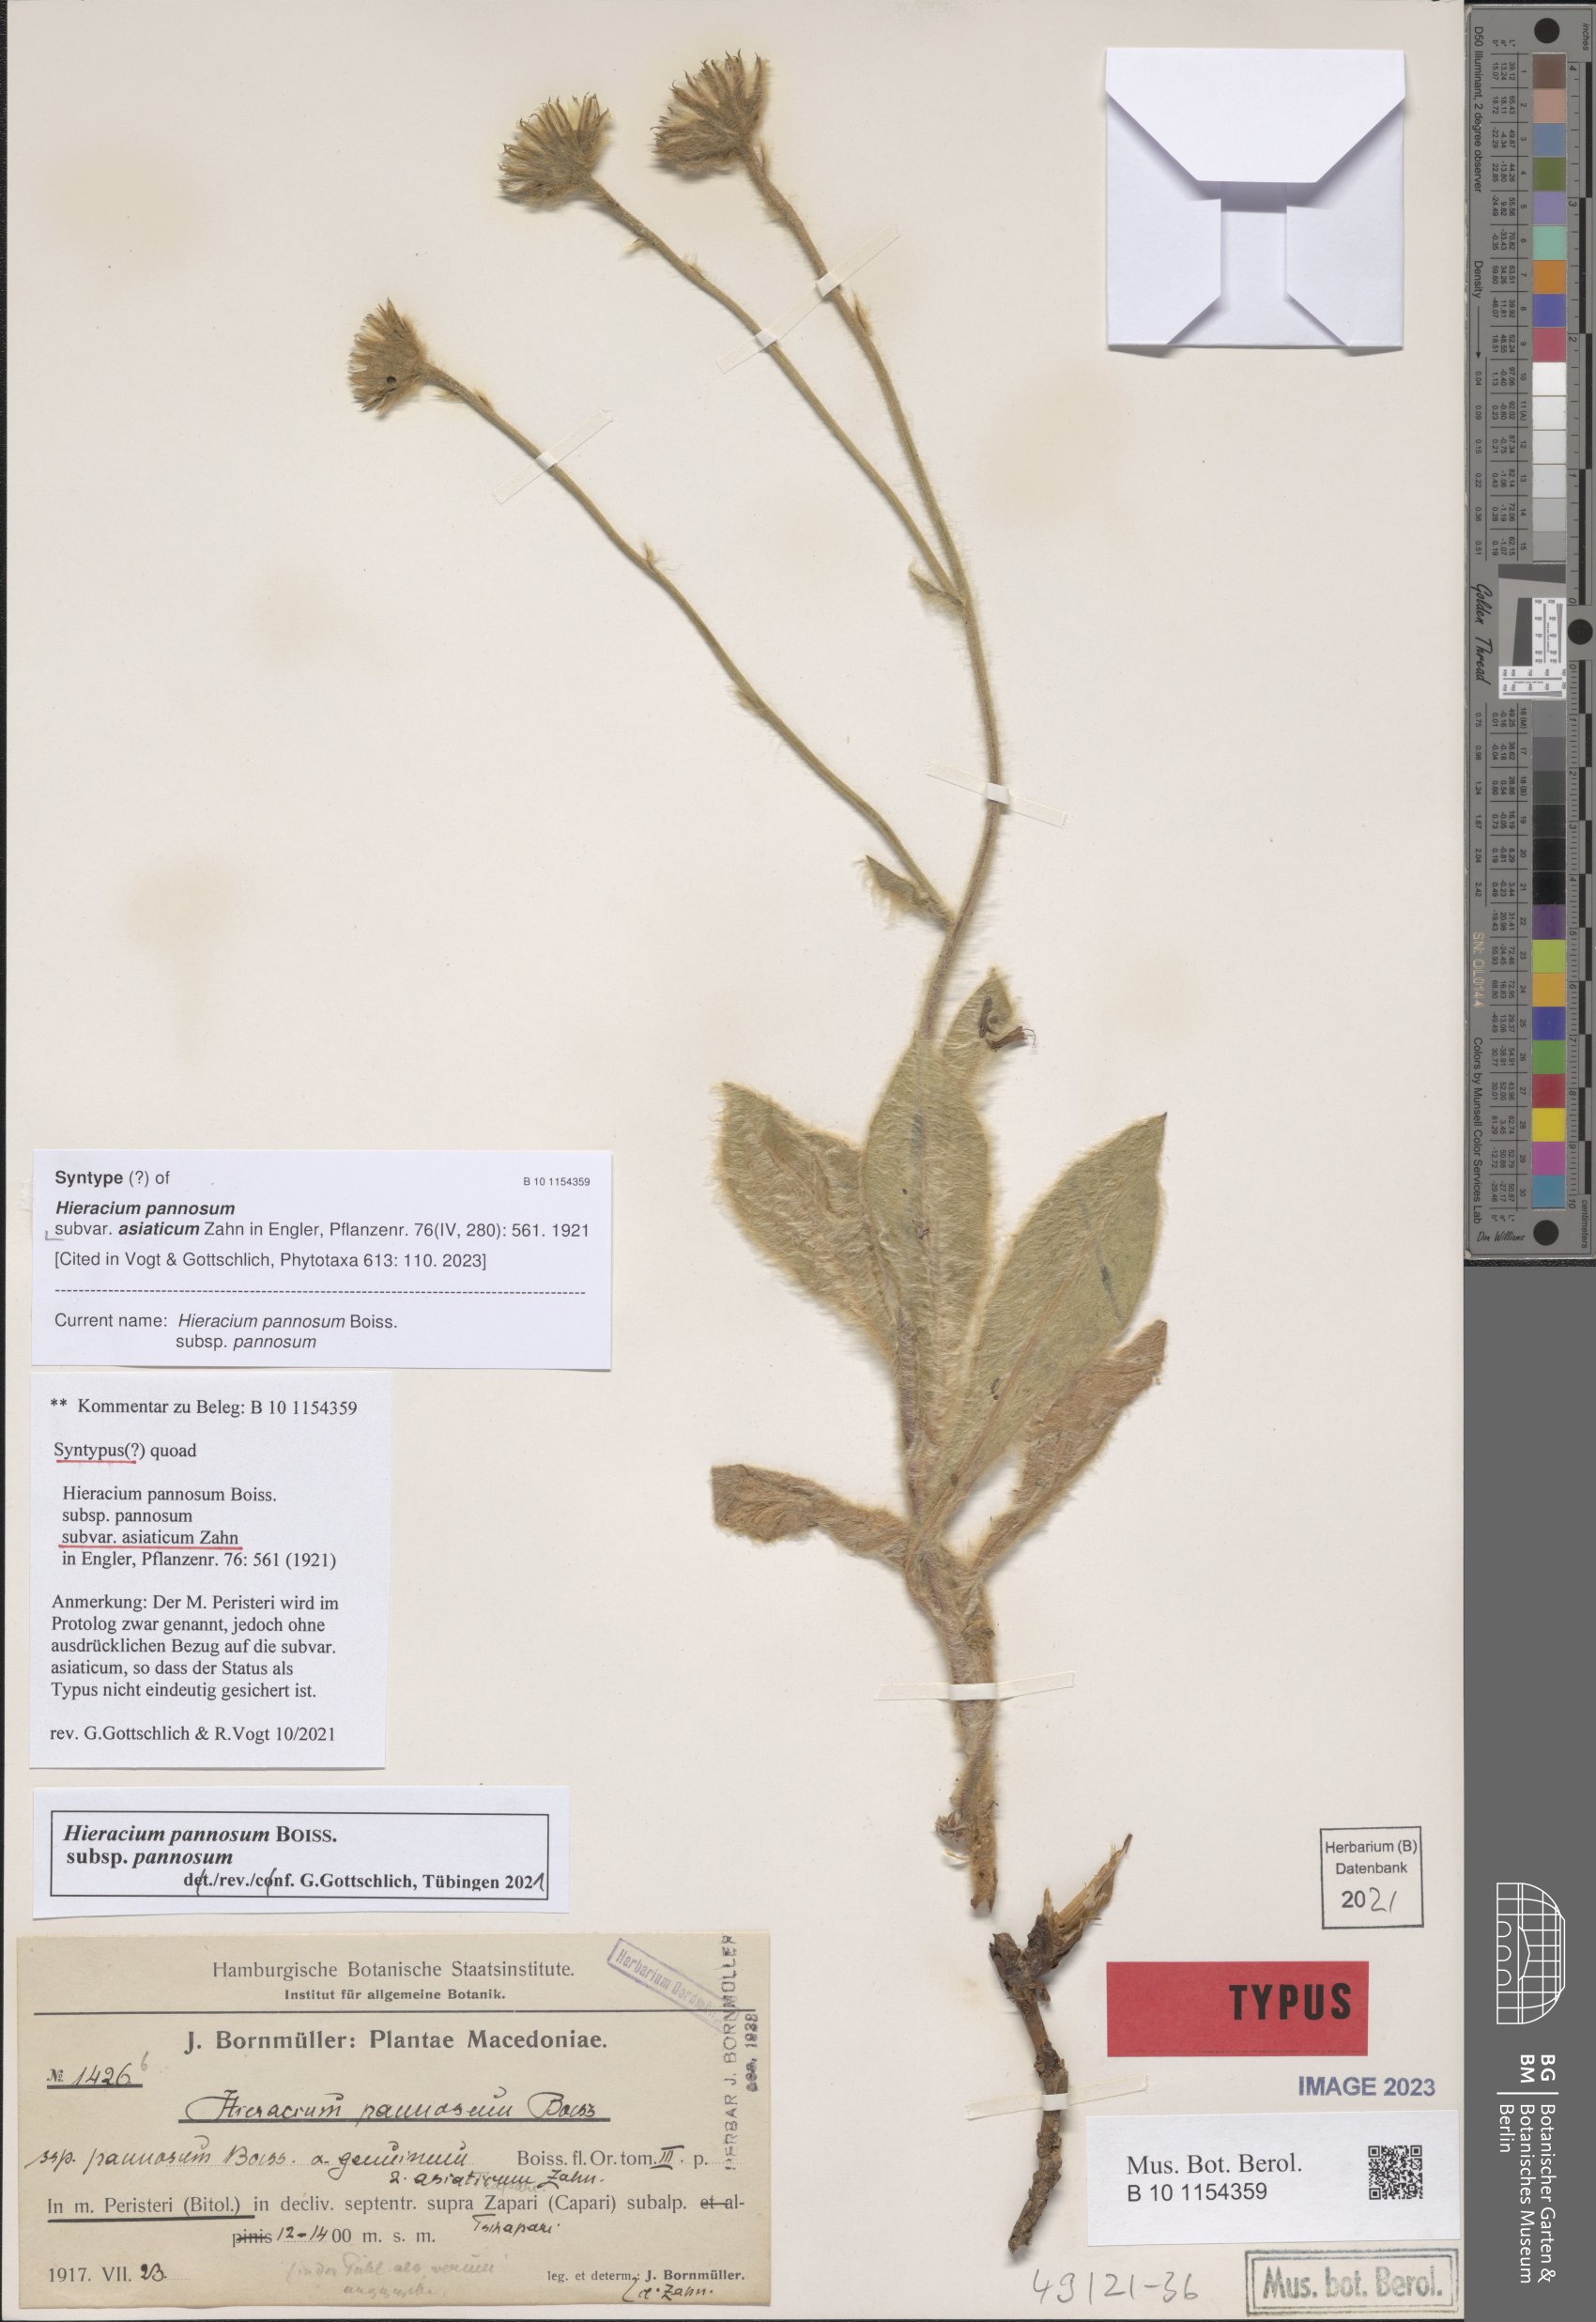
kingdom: Plantae
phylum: Tracheophyta
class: Magnoliopsida
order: Asterales
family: Asteraceae
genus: Hieracium
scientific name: Hieracium pannosum
